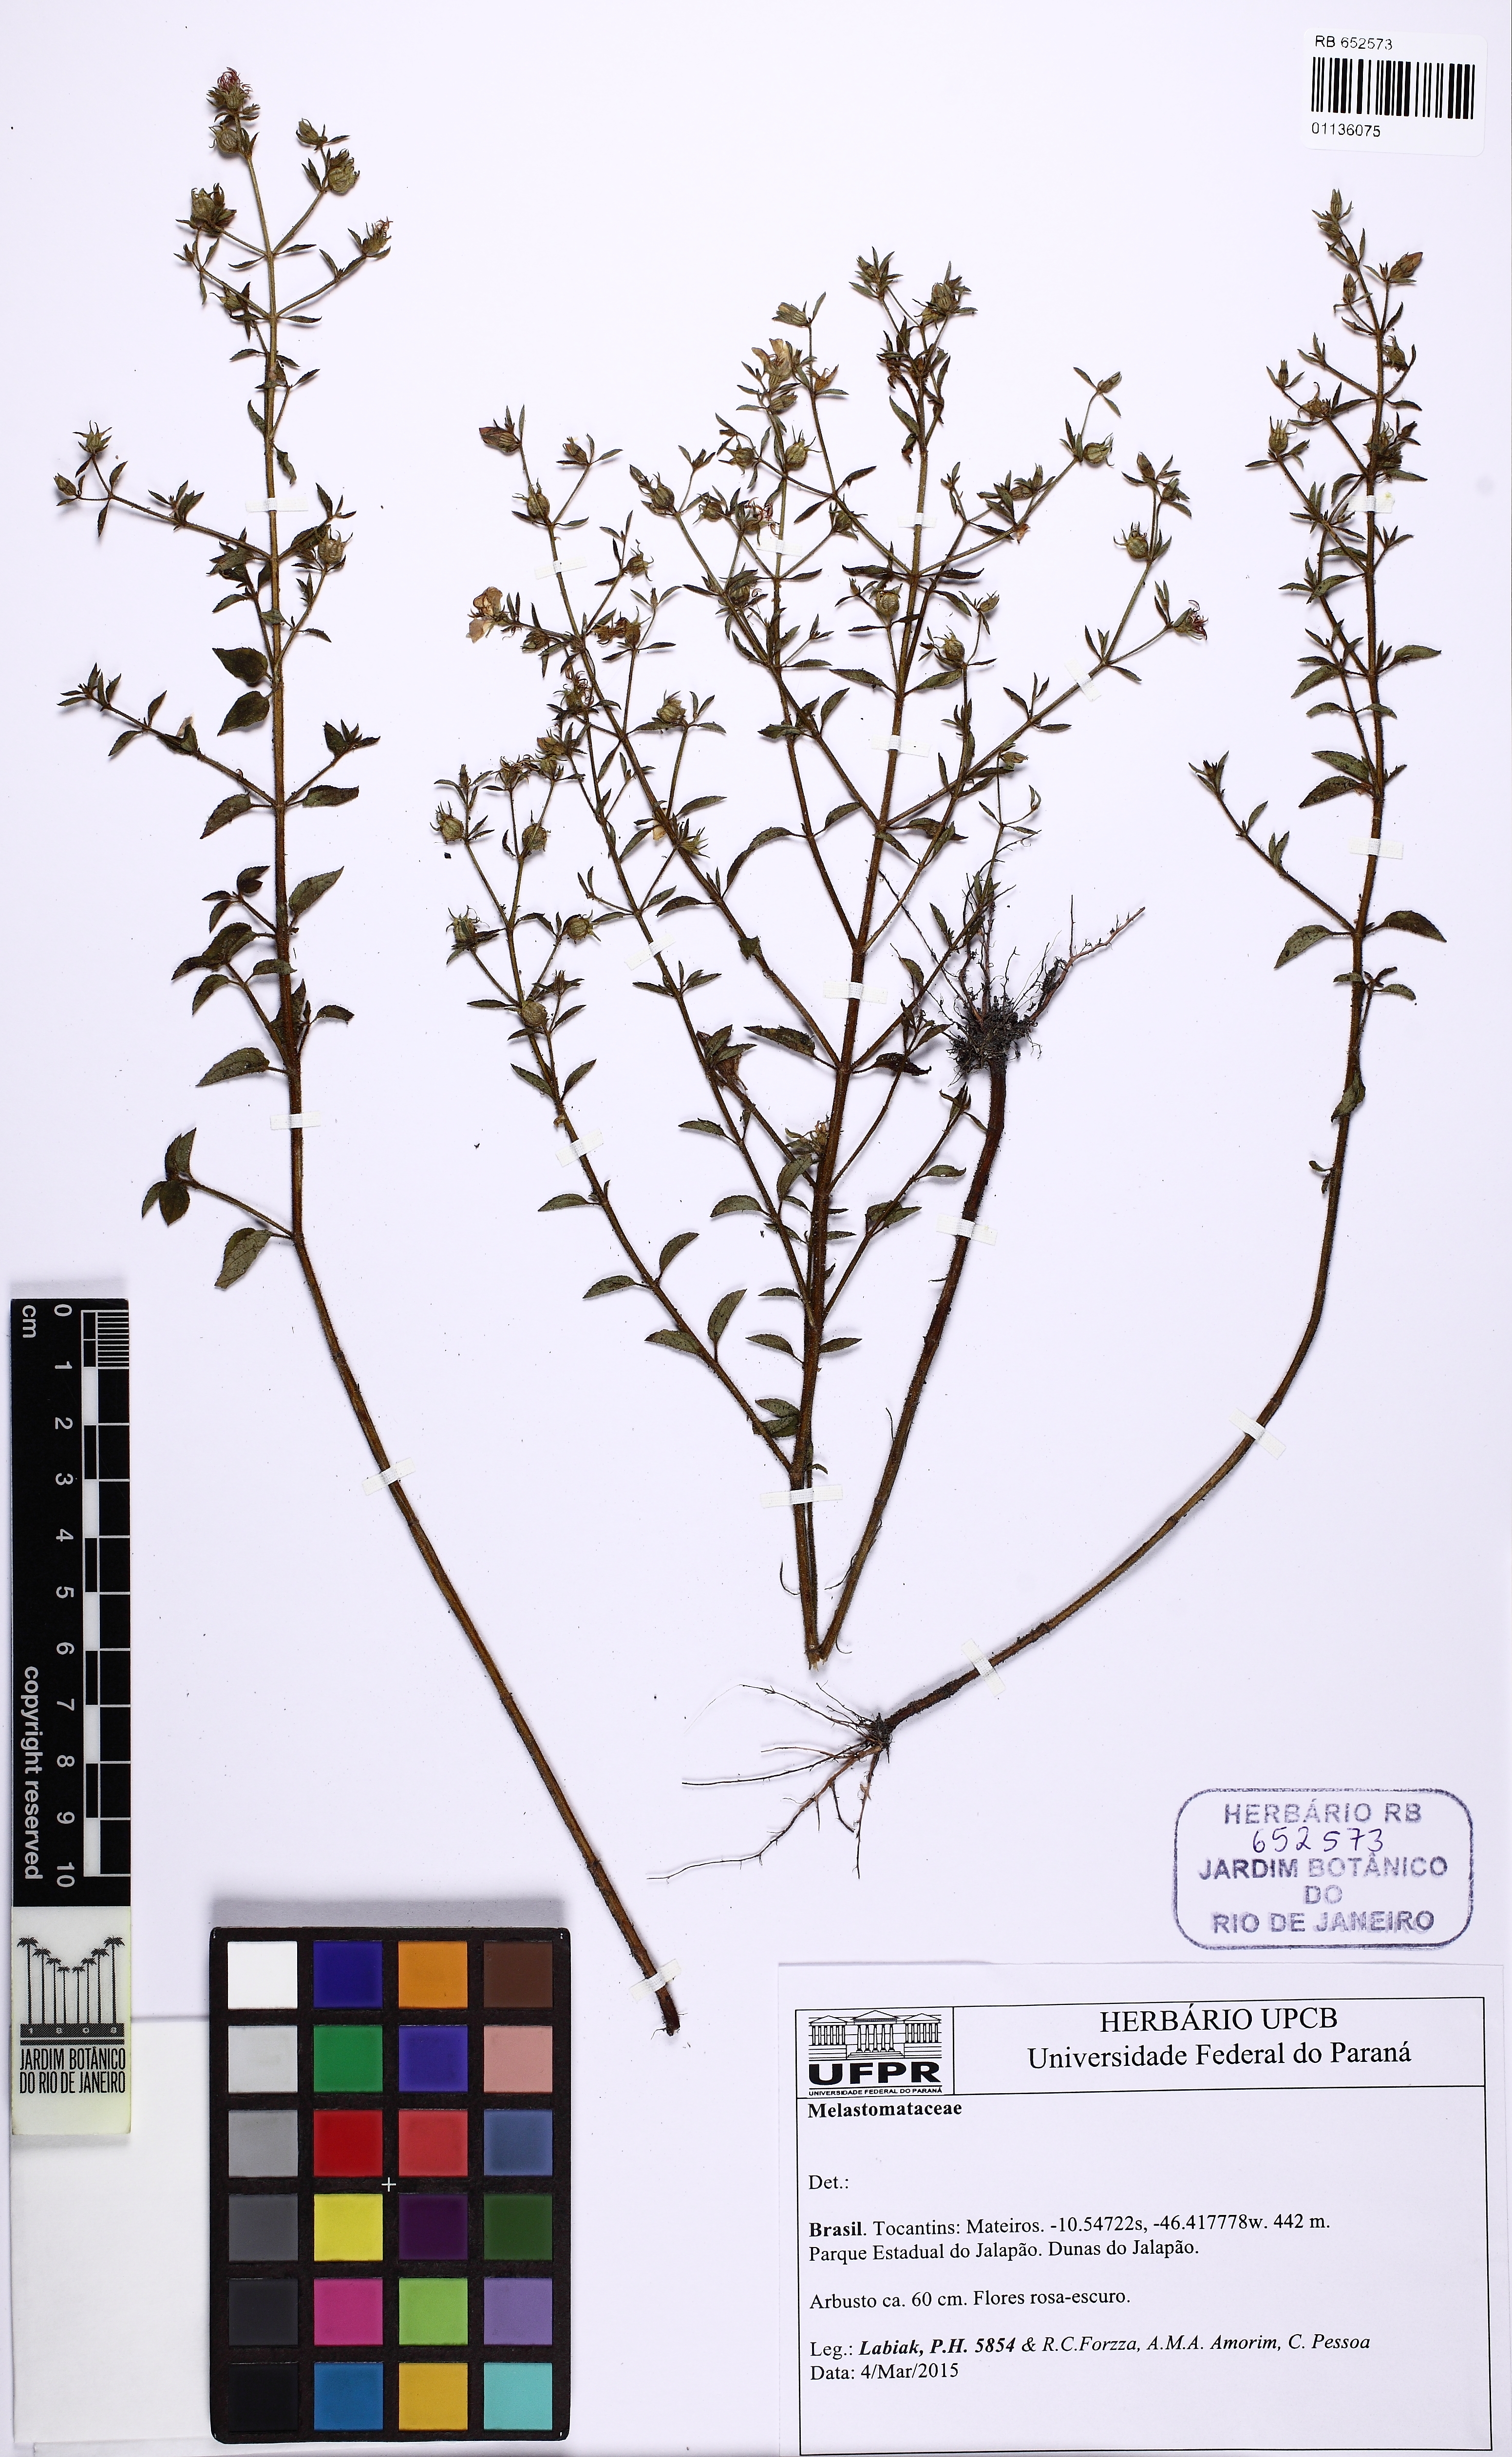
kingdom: Plantae
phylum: Tracheophyta
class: Magnoliopsida
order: Myrtales
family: Melastomataceae
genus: Acisanthera
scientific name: Acisanthera uniflora
